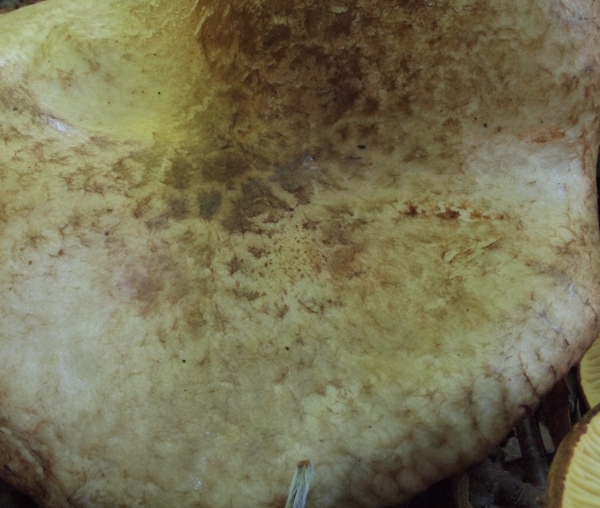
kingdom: Fungi
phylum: Basidiomycota
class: Agaricomycetes
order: Boletales
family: Paxillaceae
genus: Paxillus
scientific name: Paxillus rubicundulus
